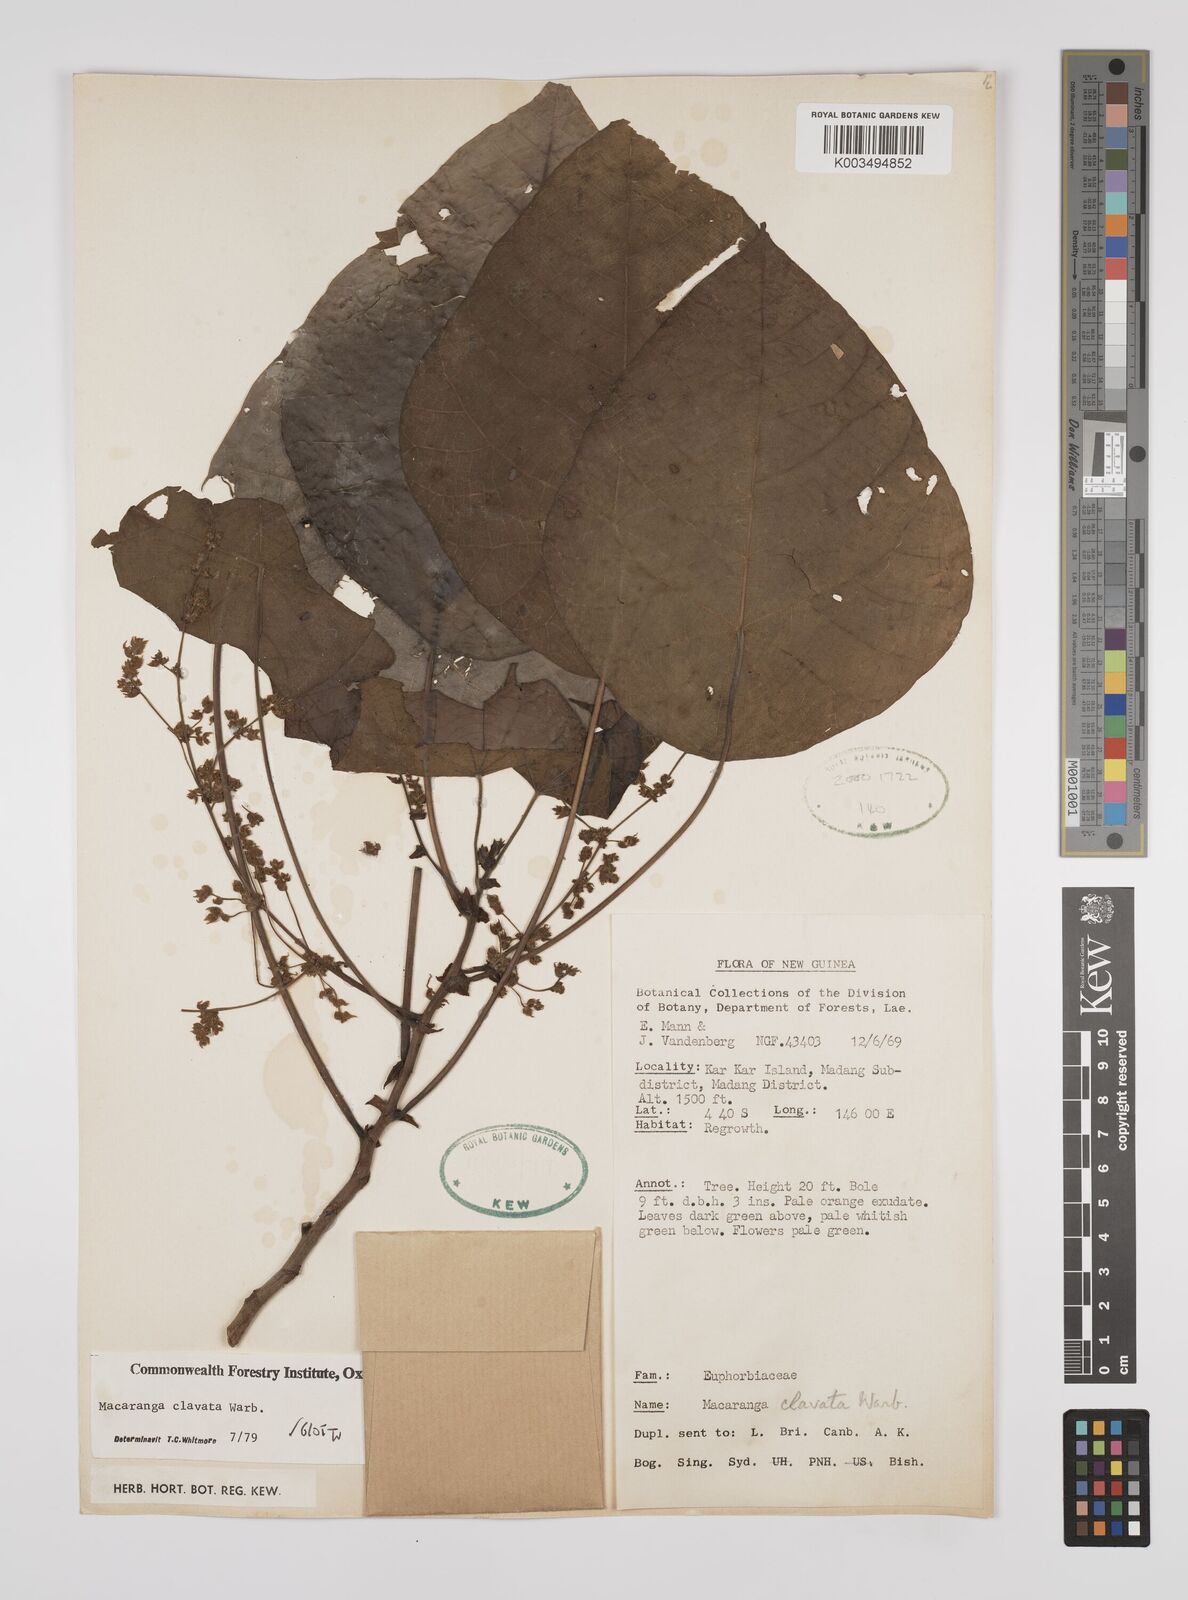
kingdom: Plantae
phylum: Tracheophyta
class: Magnoliopsida
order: Malpighiales
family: Euphorbiaceae
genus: Macaranga
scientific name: Macaranga clavata
